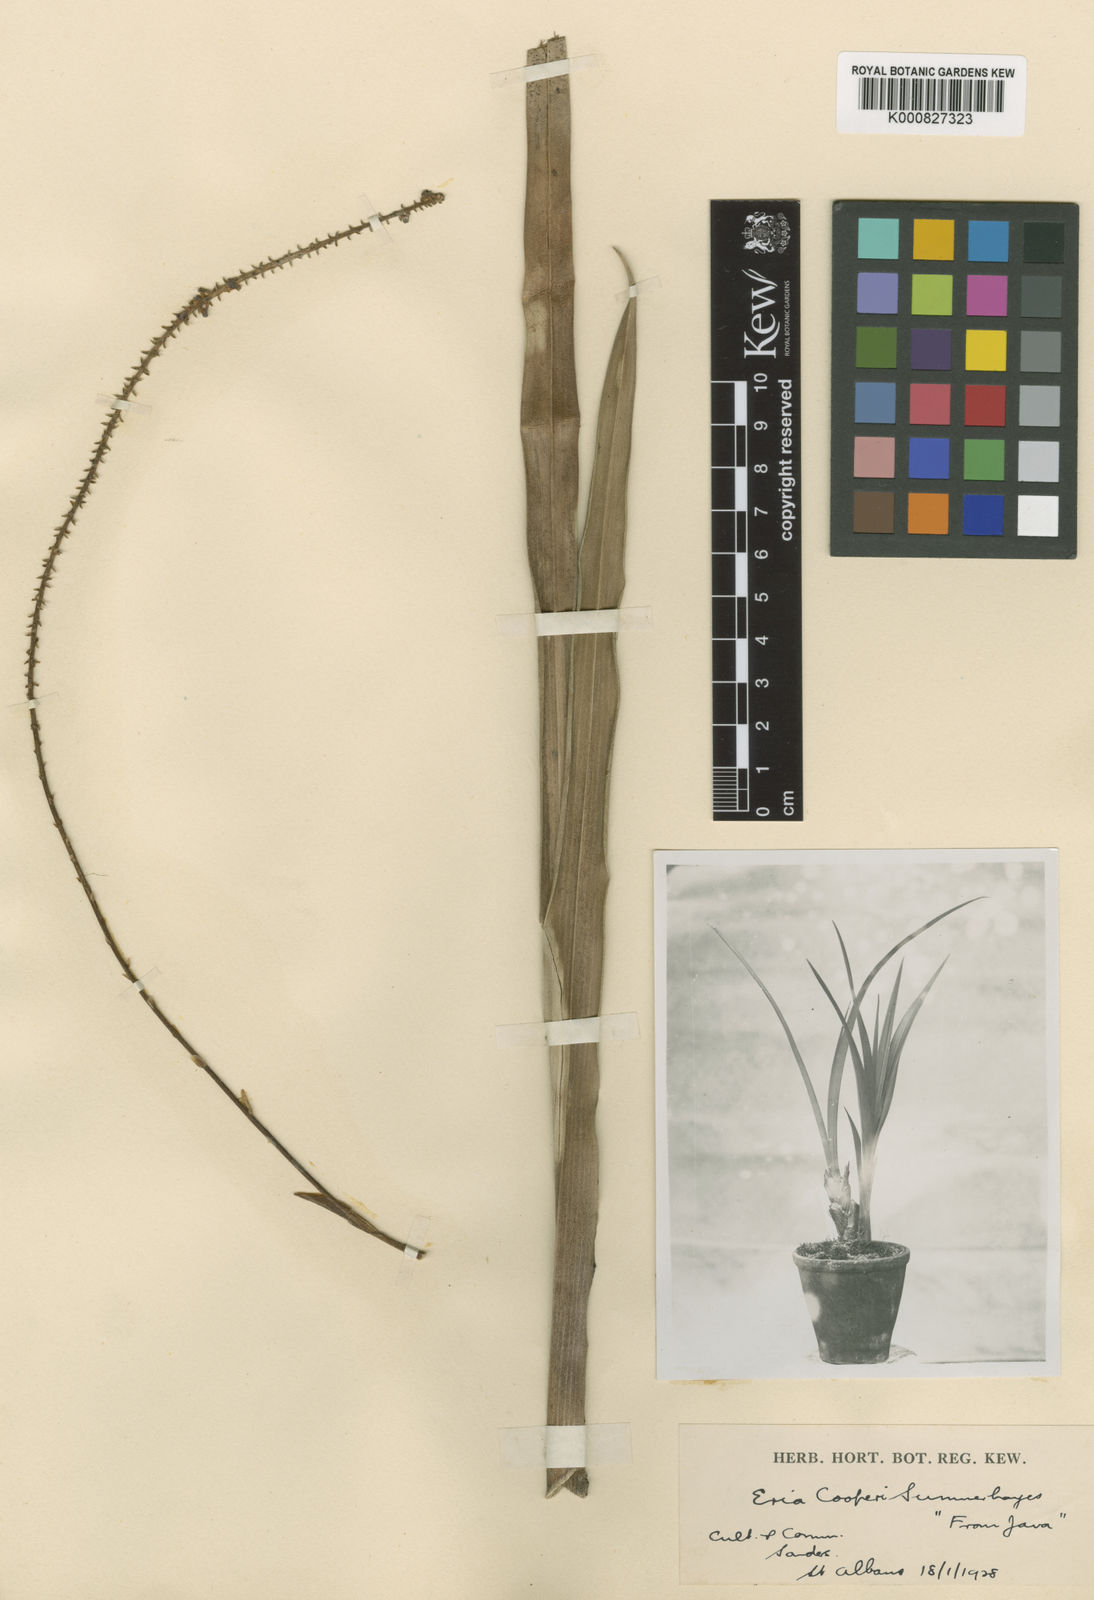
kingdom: Plantae
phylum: Tracheophyta
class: Liliopsida
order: Asparagales
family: Orchidaceae
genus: Aeridostachya
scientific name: Aeridostachya acuminata
